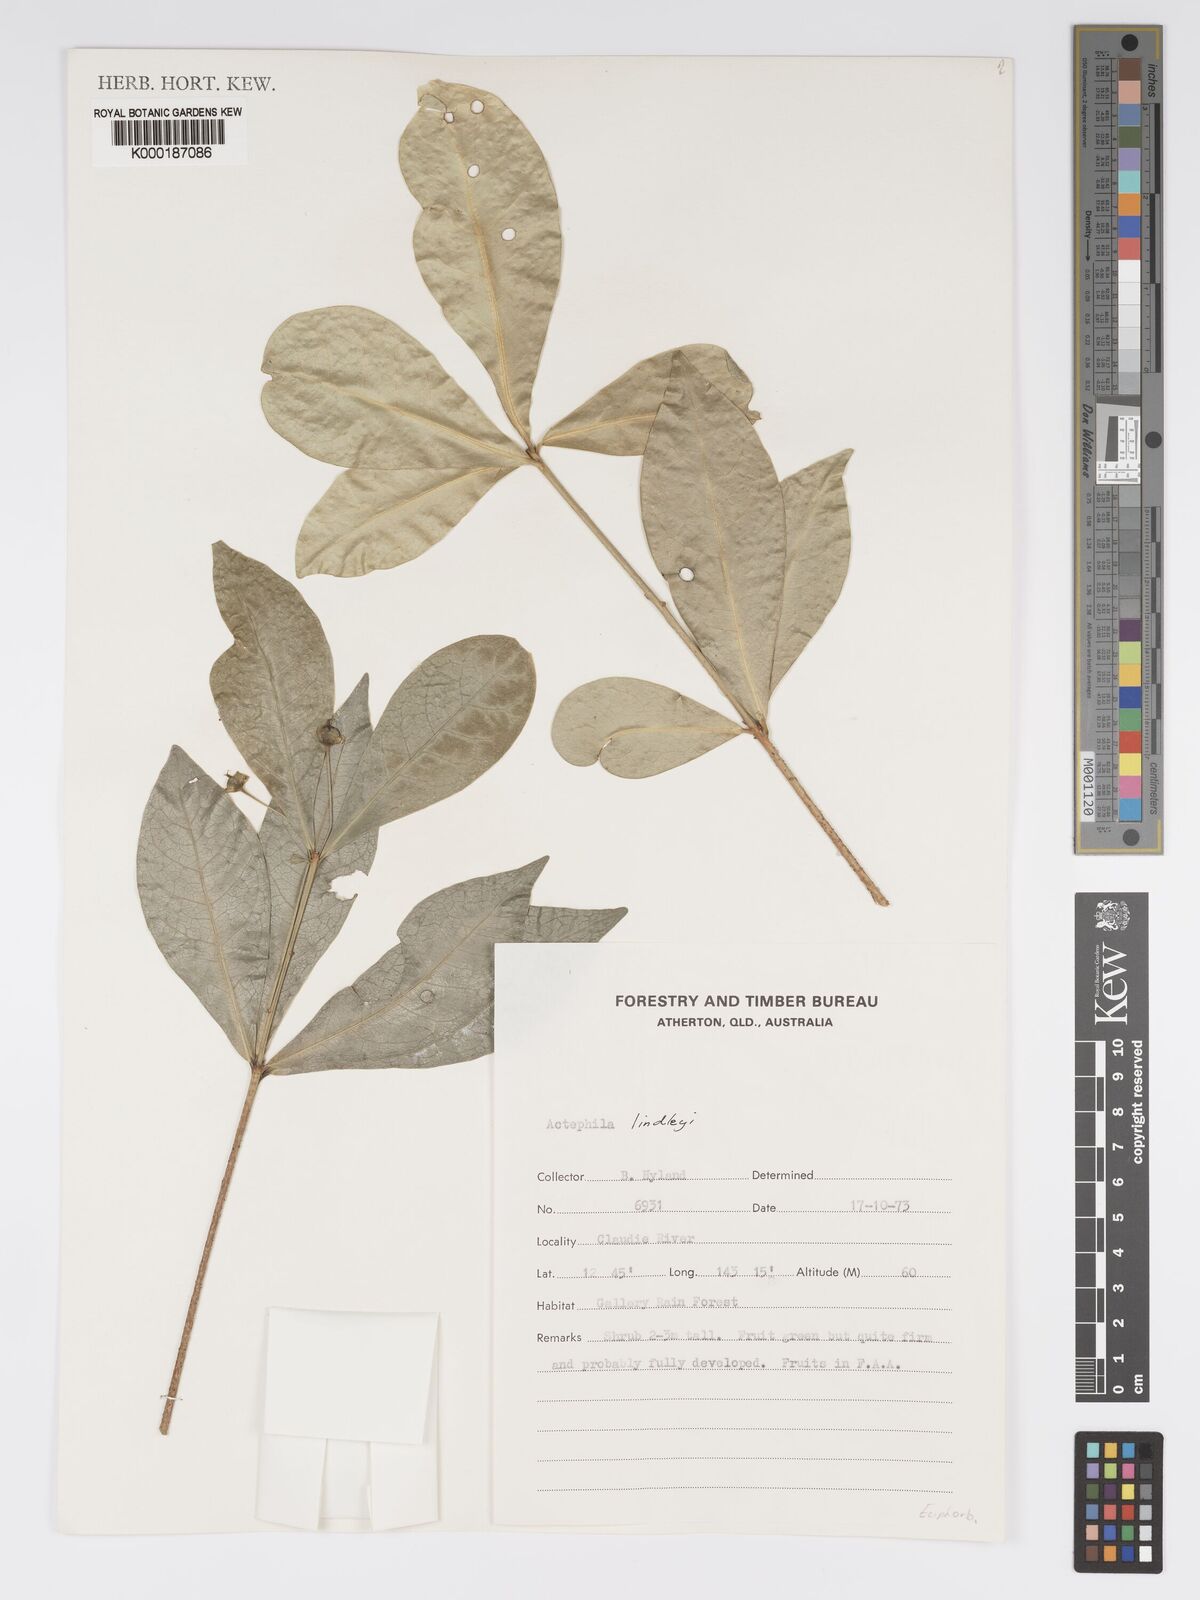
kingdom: Plantae
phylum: Tracheophyta
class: Magnoliopsida
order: Malpighiales
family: Phyllanthaceae
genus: Actephila
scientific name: Actephila lindleyi
